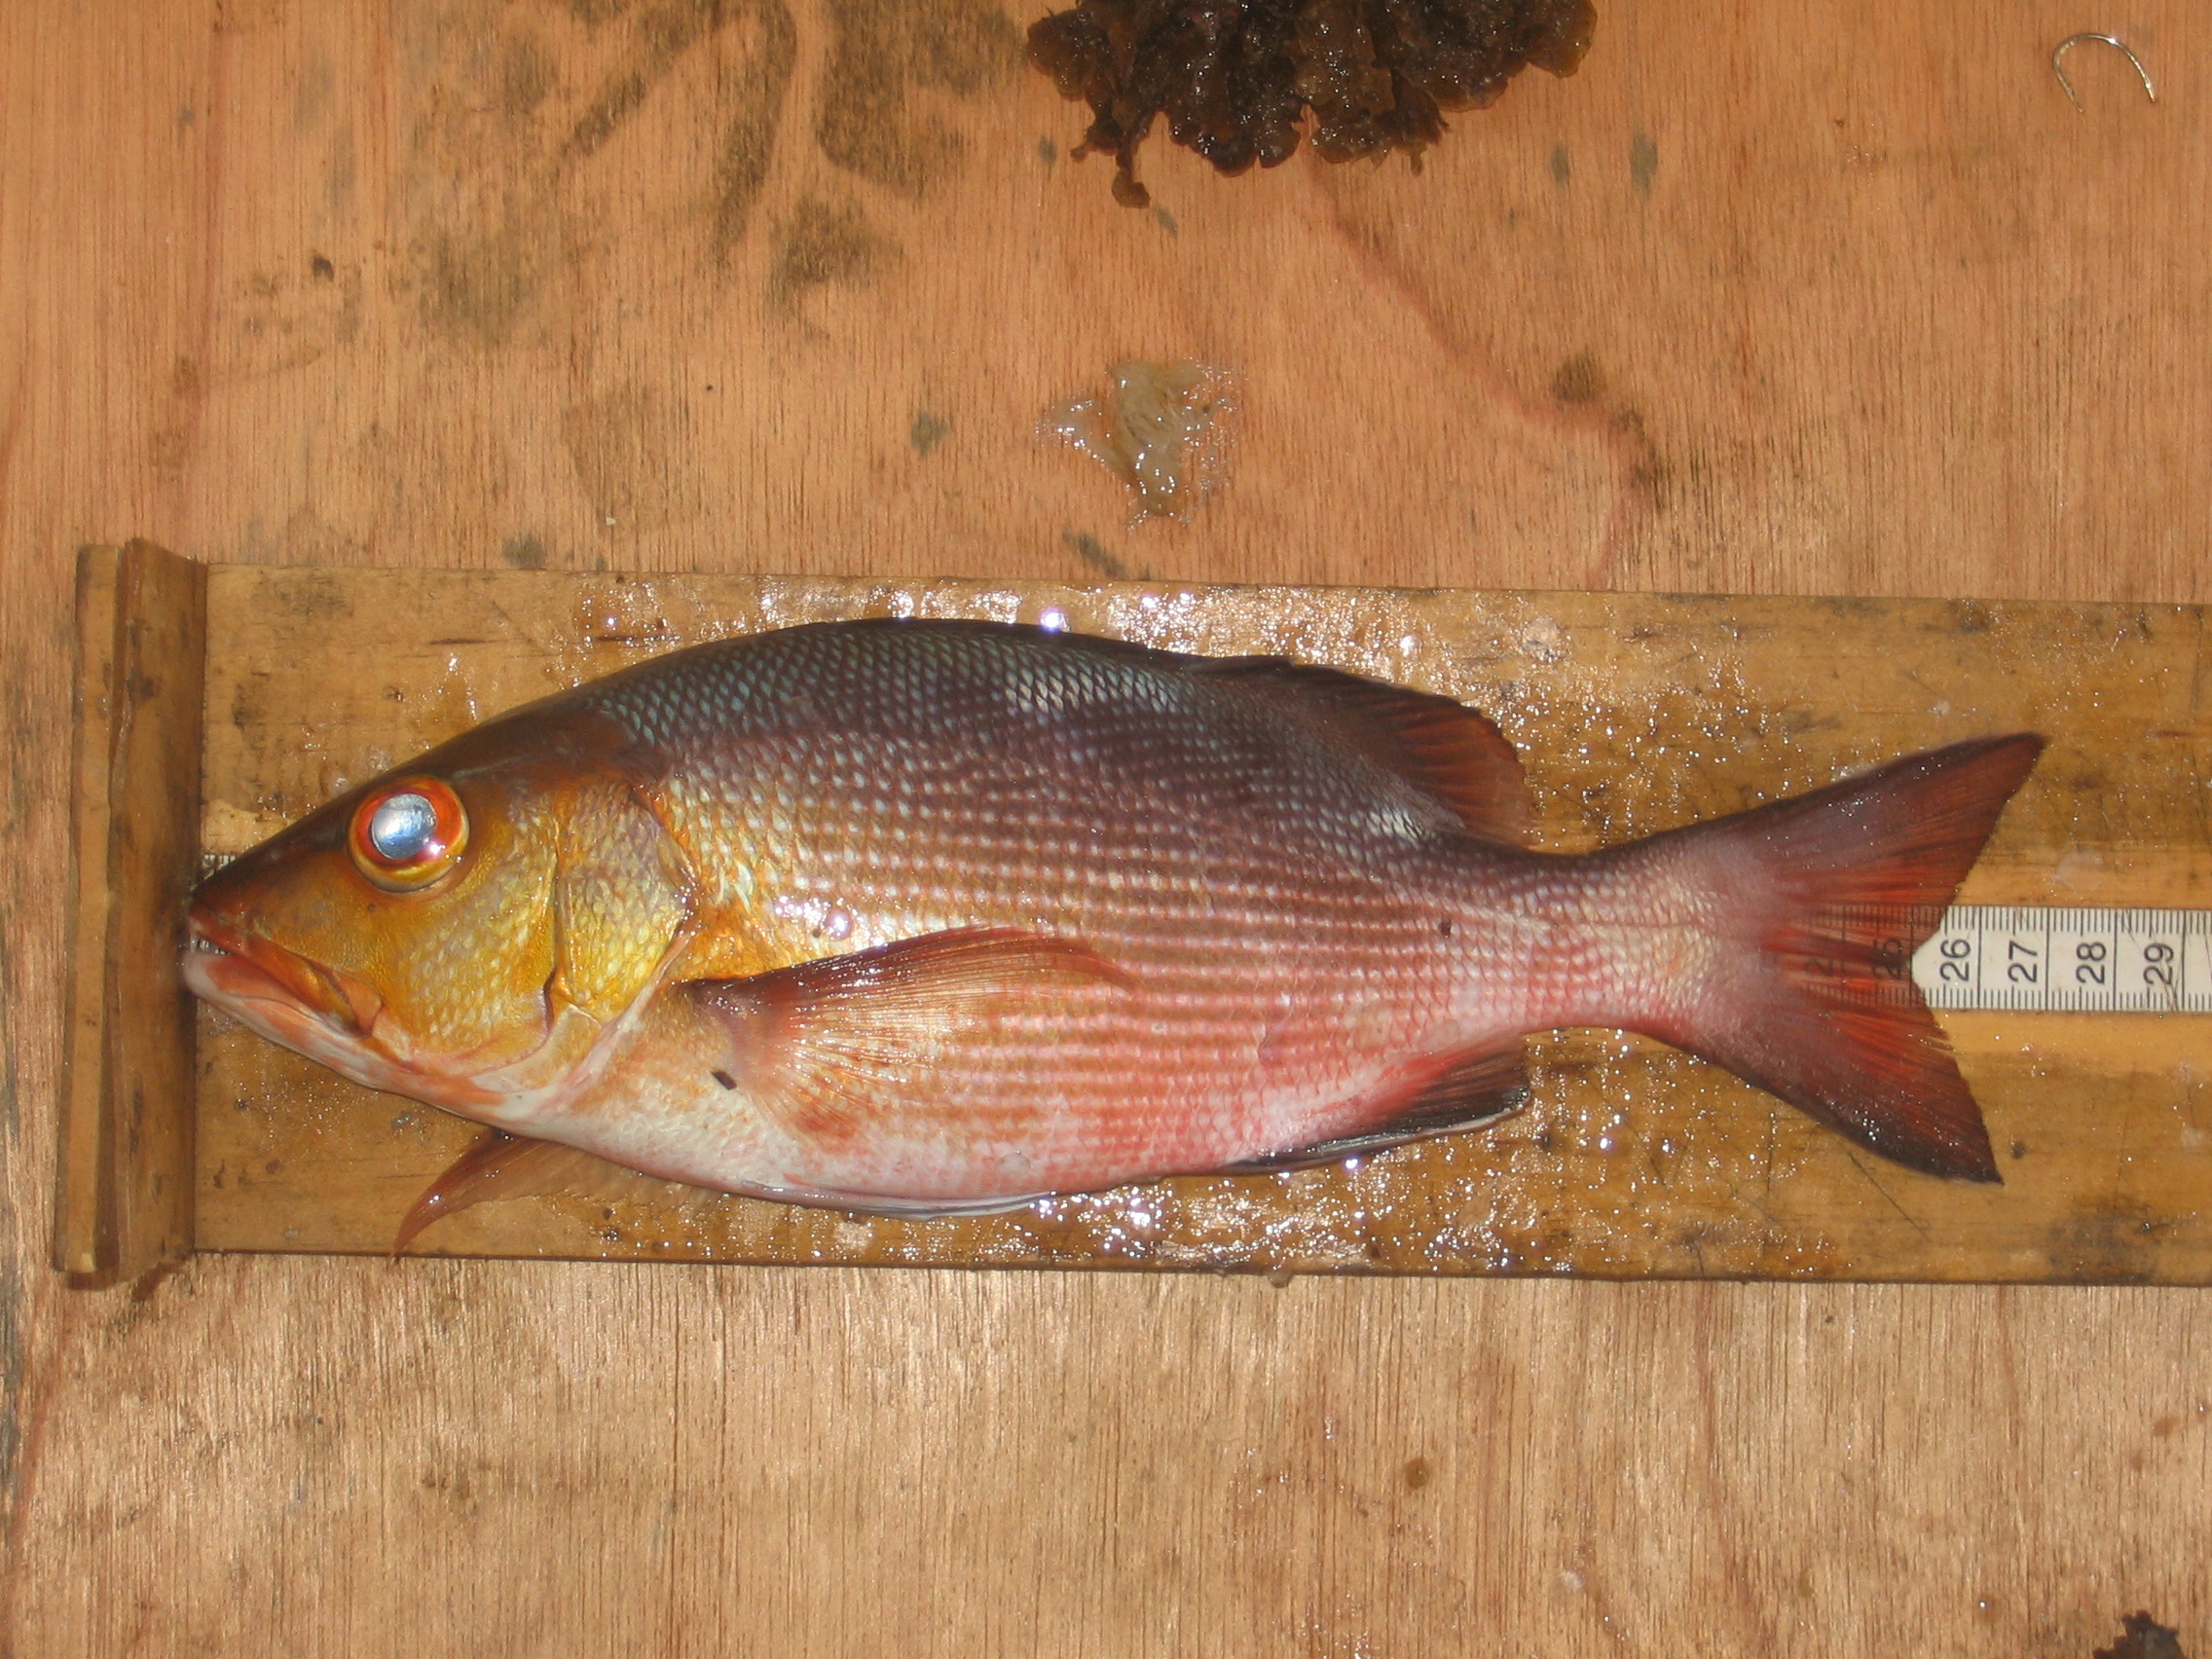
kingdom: Animalia
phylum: Chordata
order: Perciformes
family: Carangidae
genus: Selar
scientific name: Selar crumenophthalmus
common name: Bigeye scad
